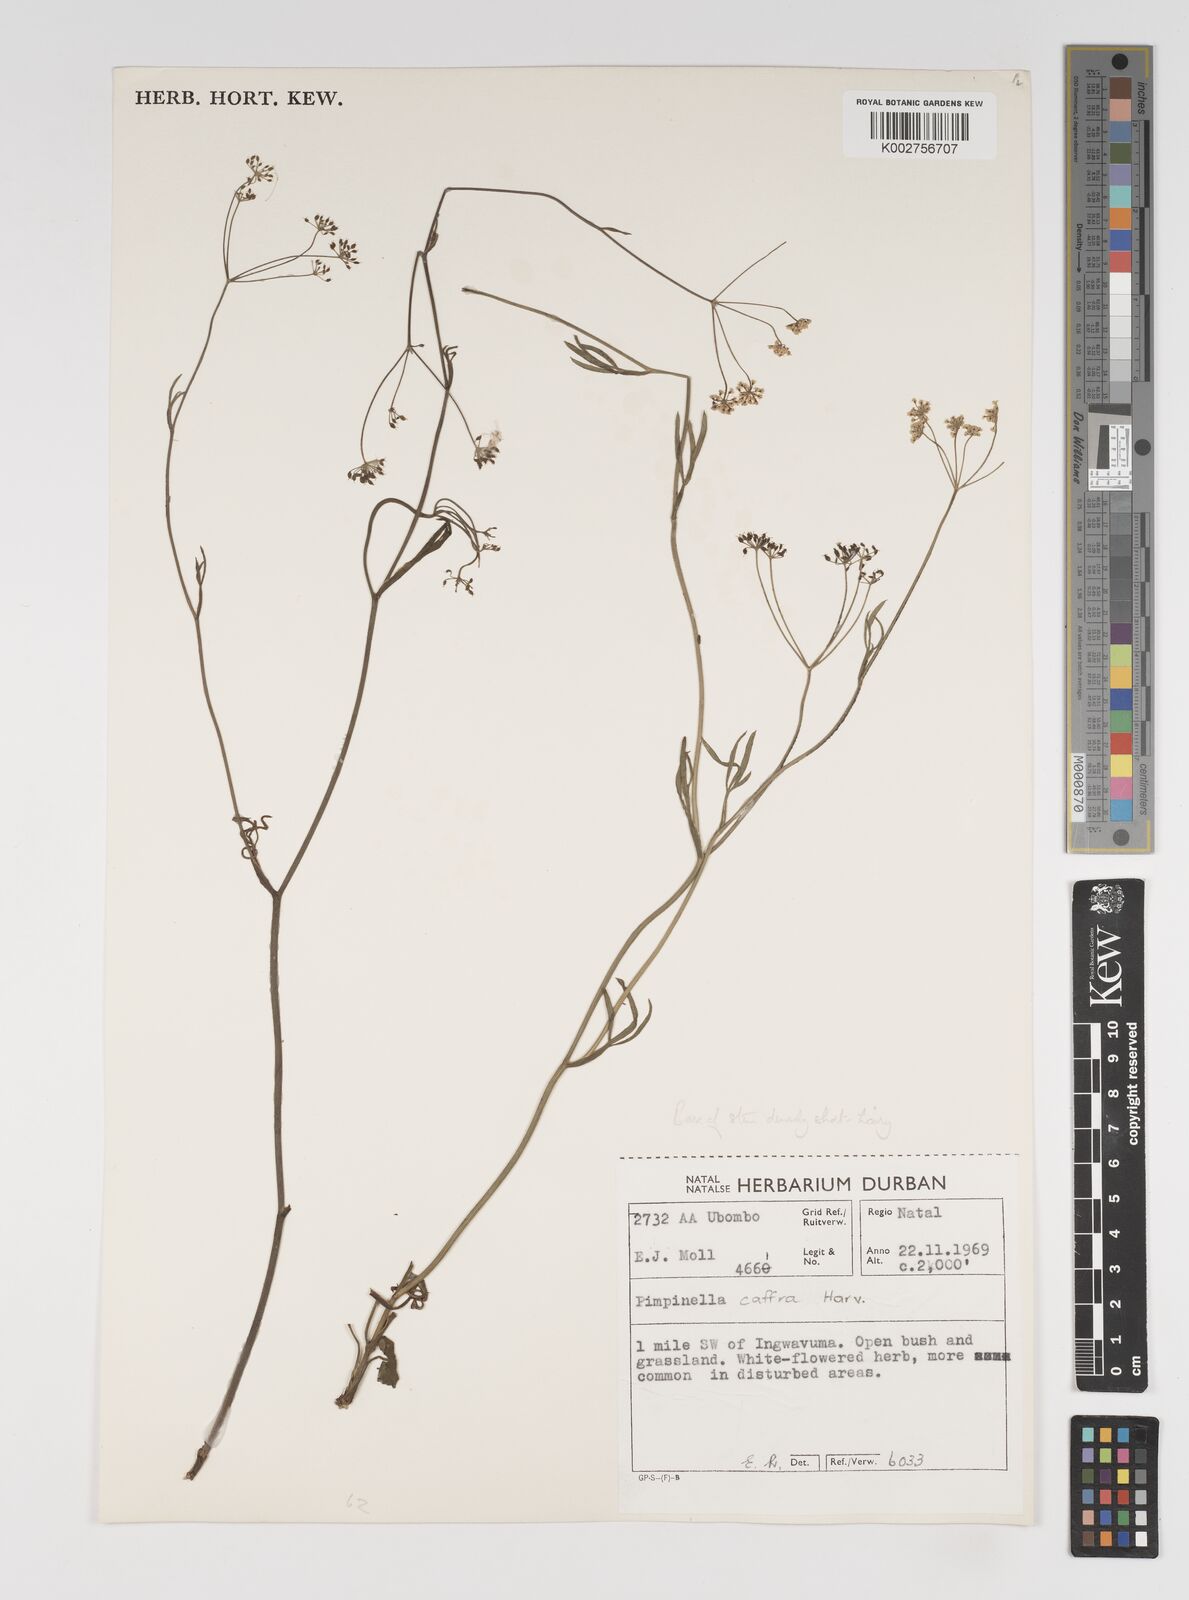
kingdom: Plantae
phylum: Tracheophyta
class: Magnoliopsida
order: Apiales
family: Apiaceae
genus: Pimpinella
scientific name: Pimpinella
